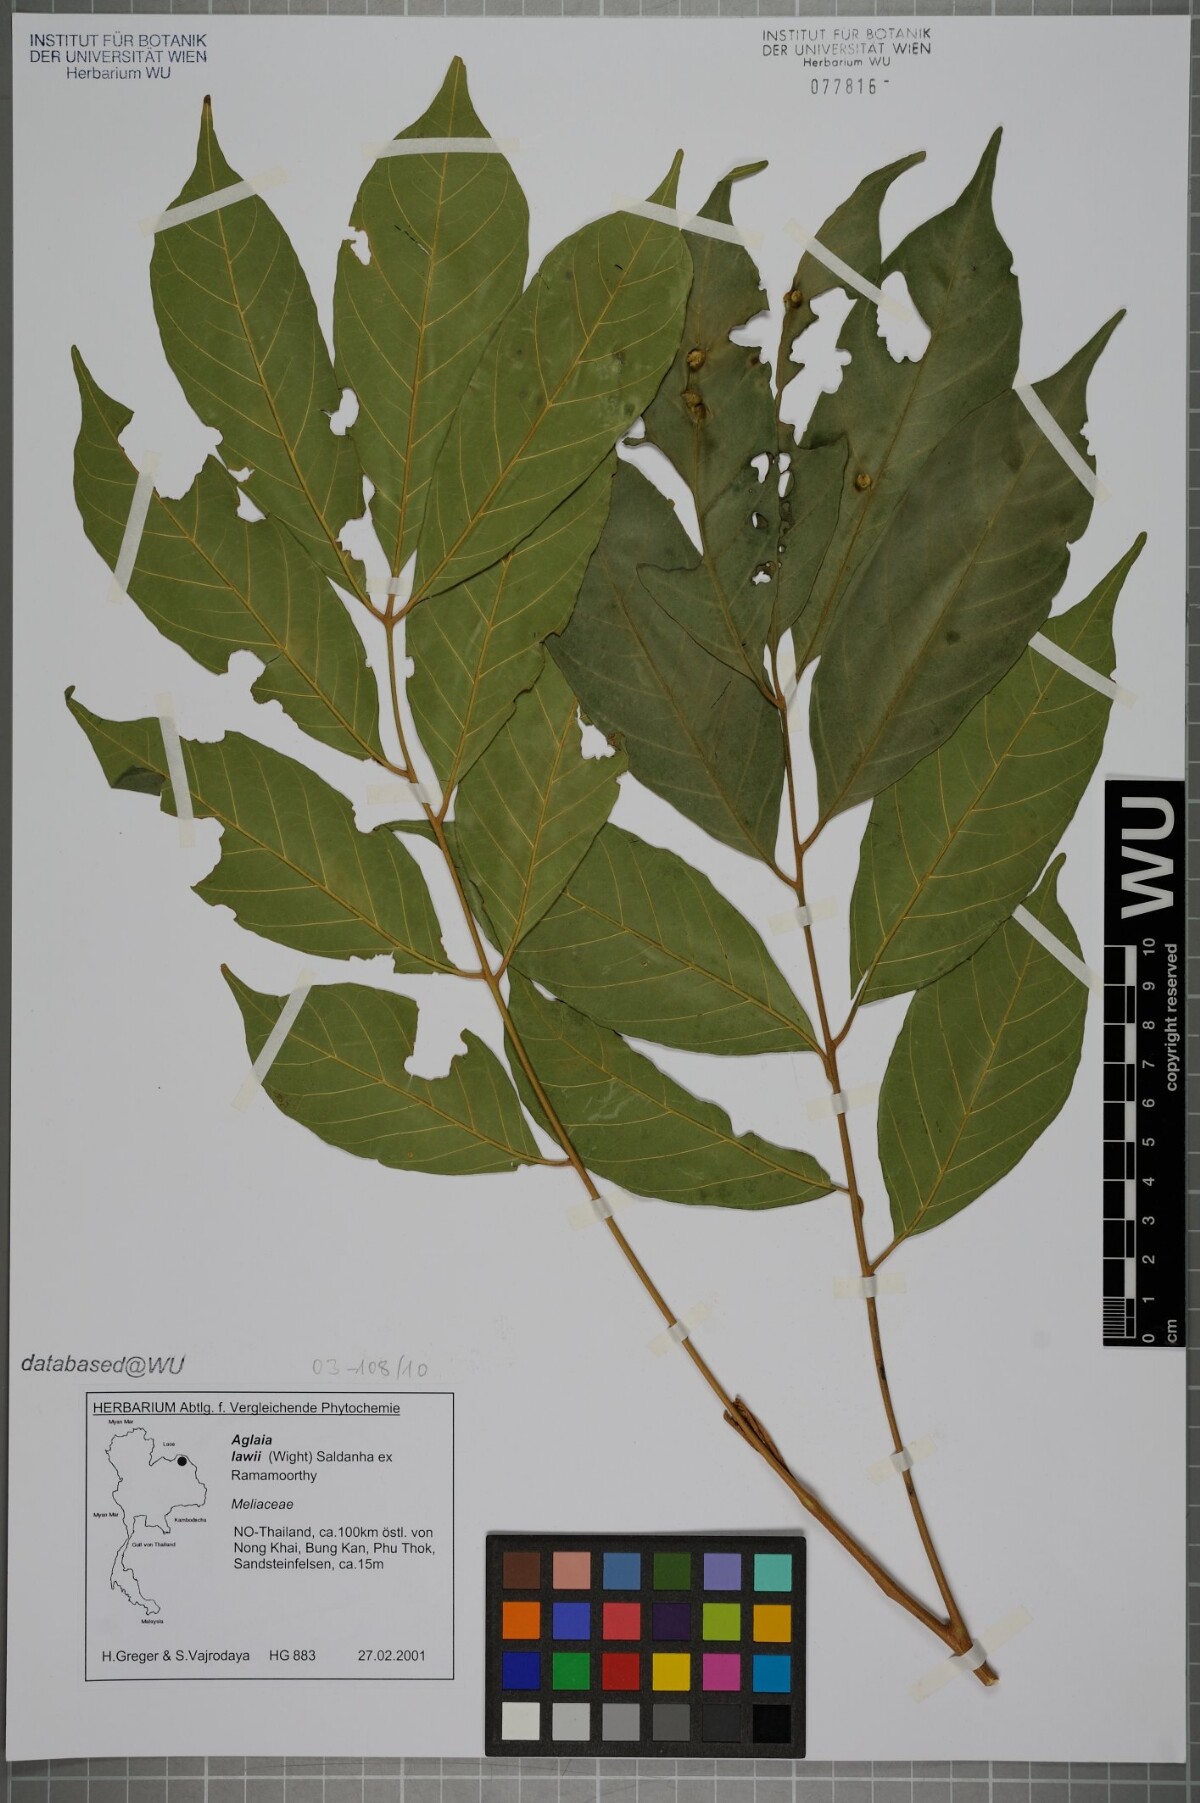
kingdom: Plantae
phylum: Tracheophyta
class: Magnoliopsida
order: Sapindales
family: Meliaceae
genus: Aglaia
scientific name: Aglaia lawii
